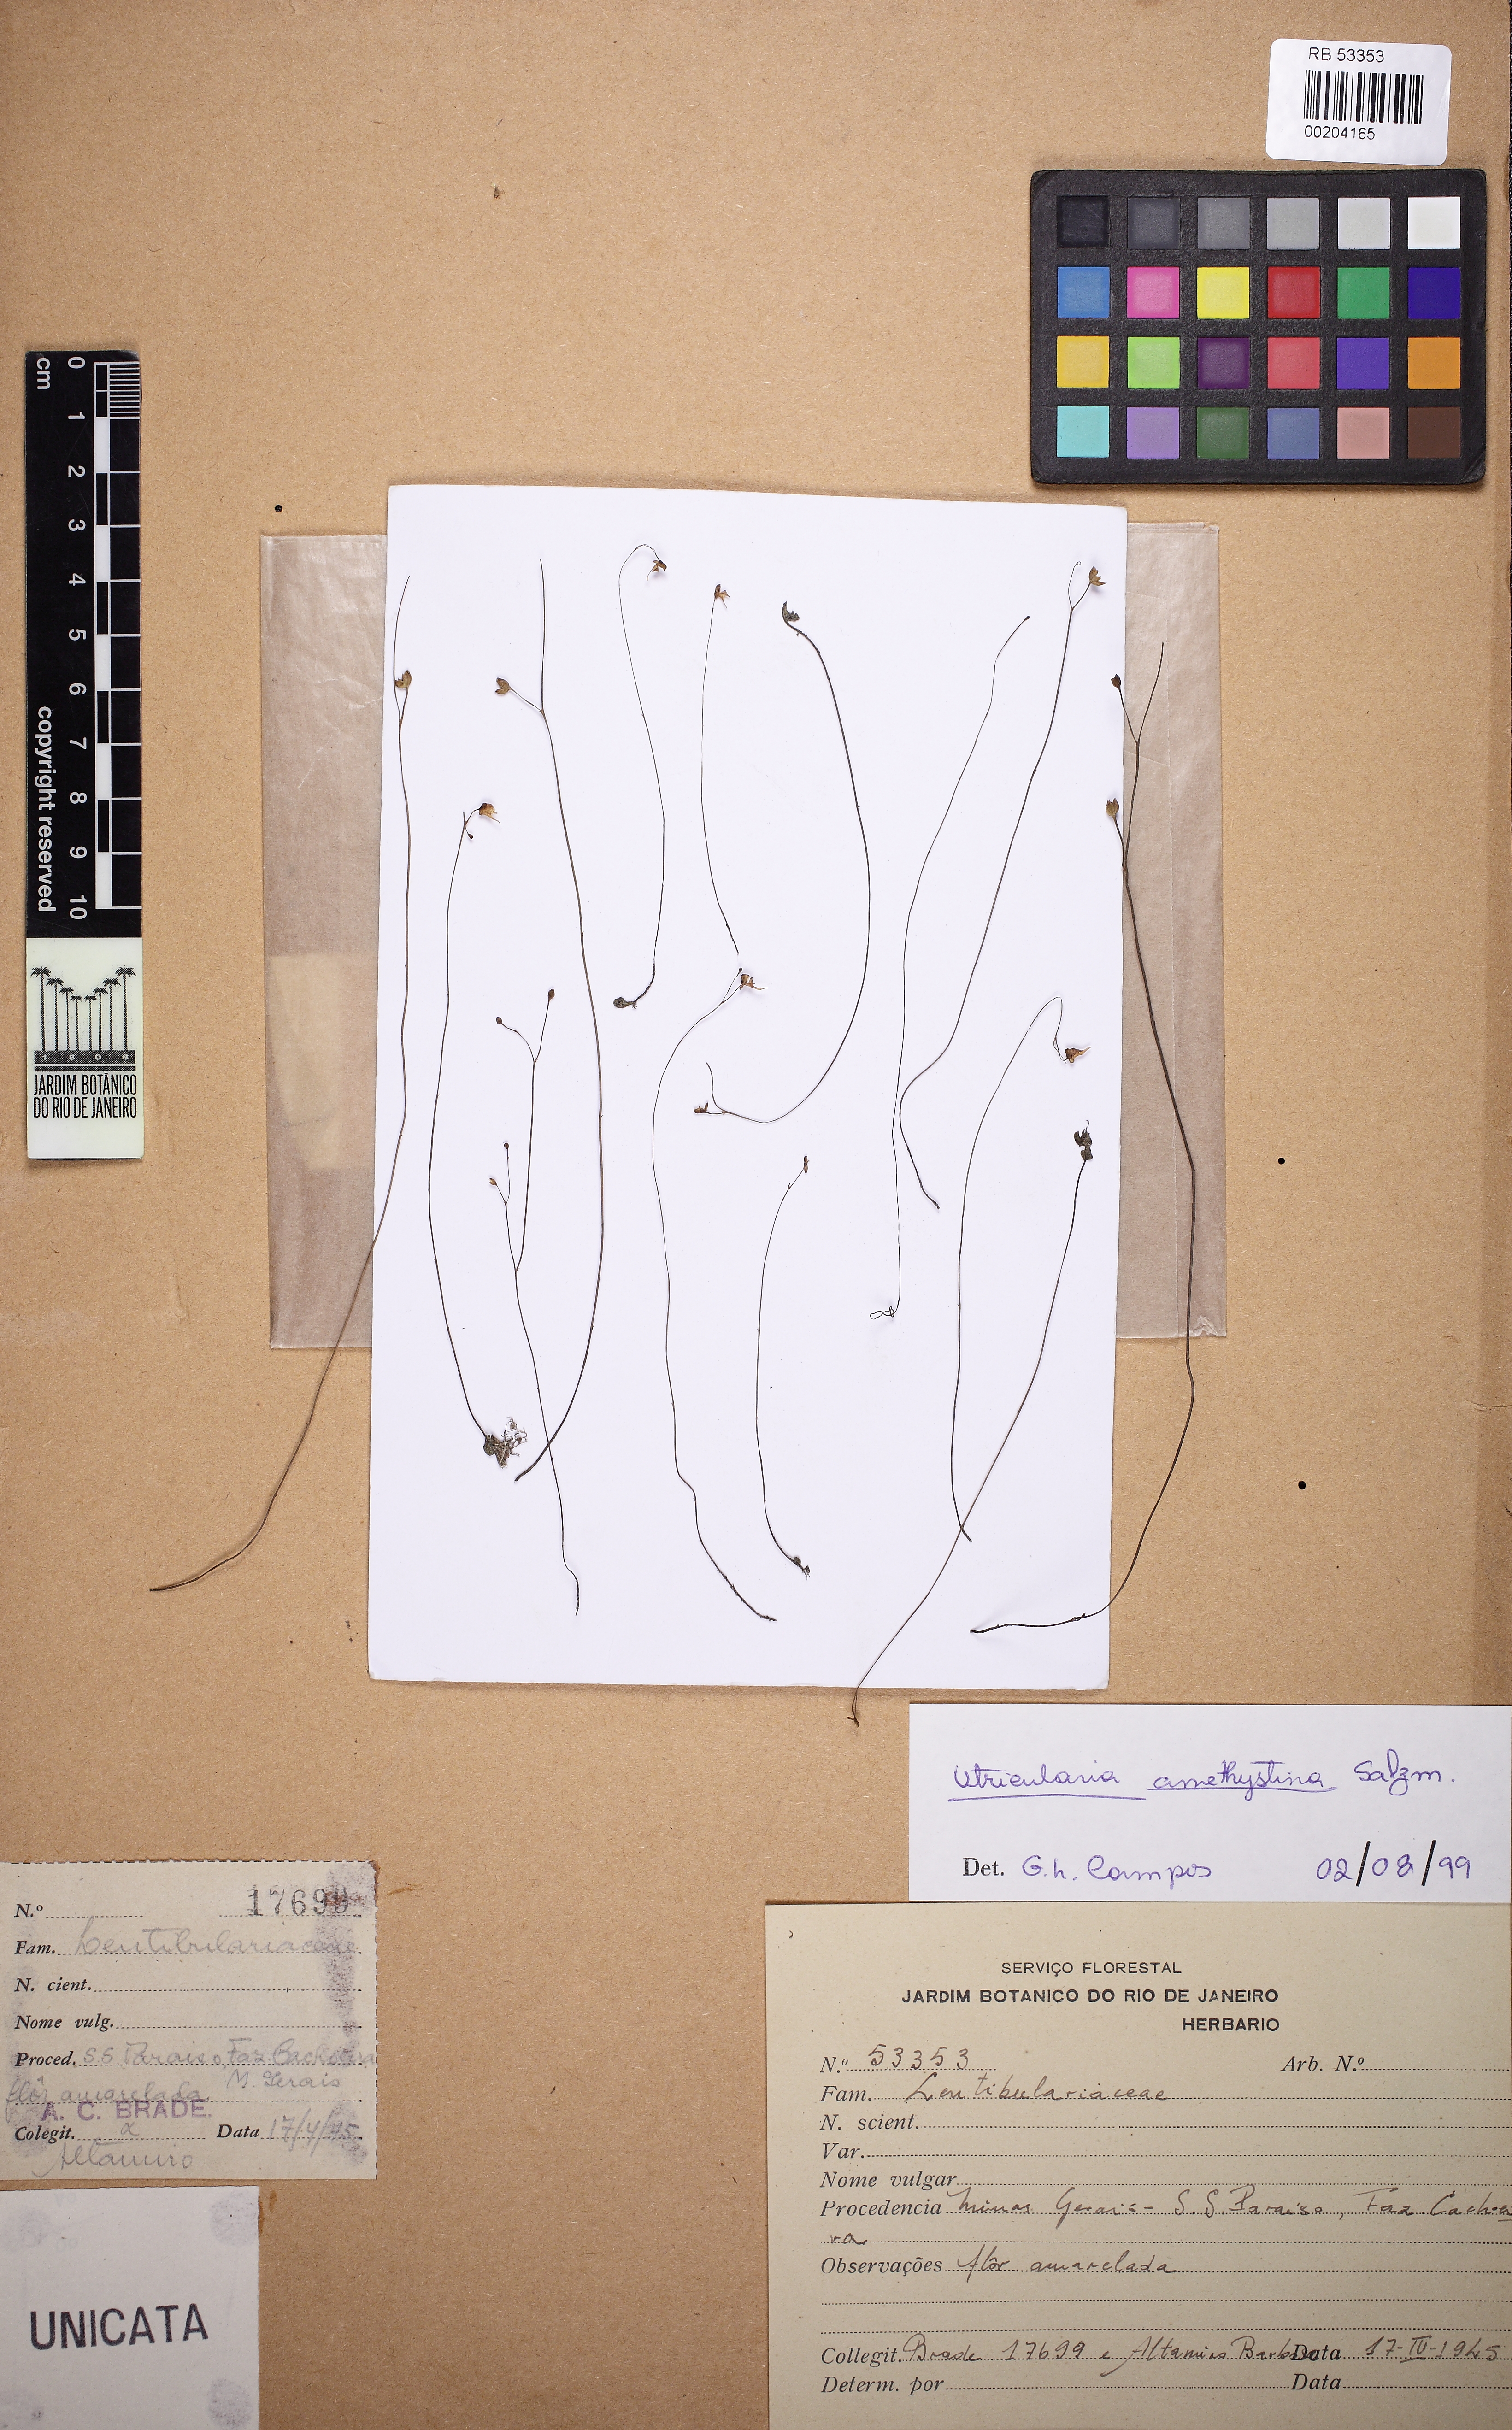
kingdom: Plantae
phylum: Tracheophyta
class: Magnoliopsida
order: Lamiales
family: Lentibulariaceae
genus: Utricularia
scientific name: Utricularia amethystina
